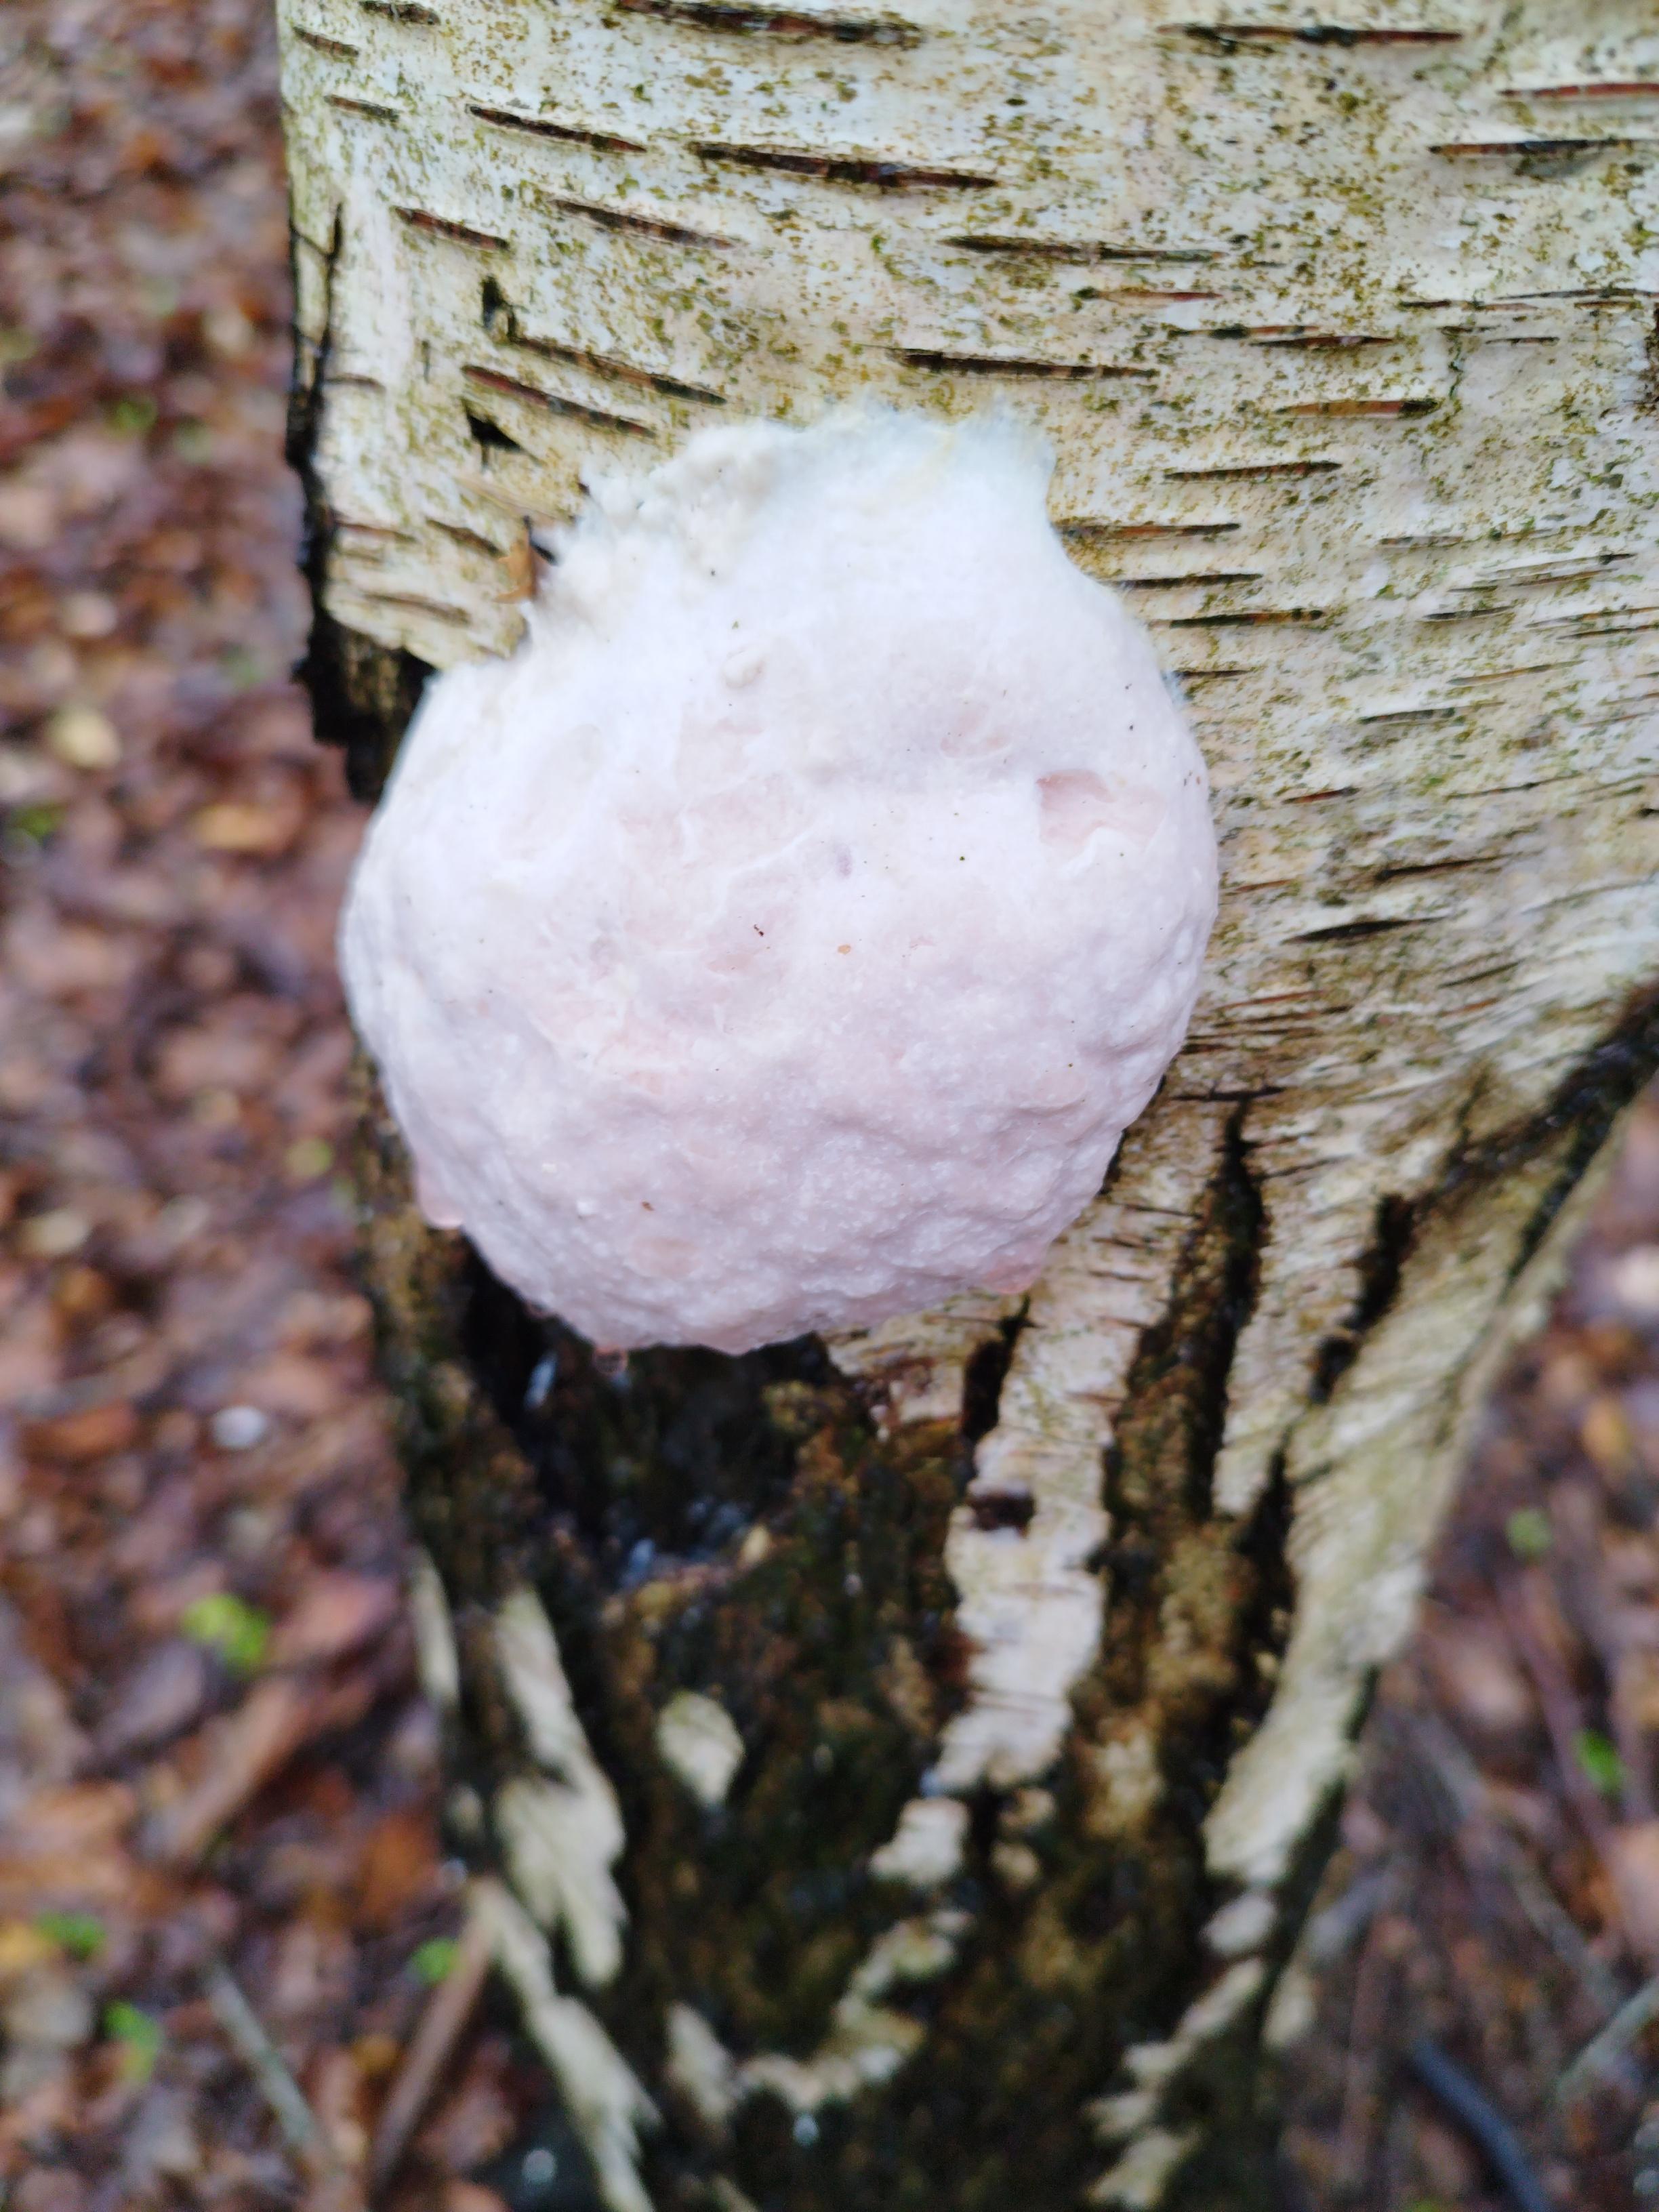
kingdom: Protozoa
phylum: Mycetozoa
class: Myxomycetes
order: Cribrariales
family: Tubiferaceae
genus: Reticularia
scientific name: Reticularia
